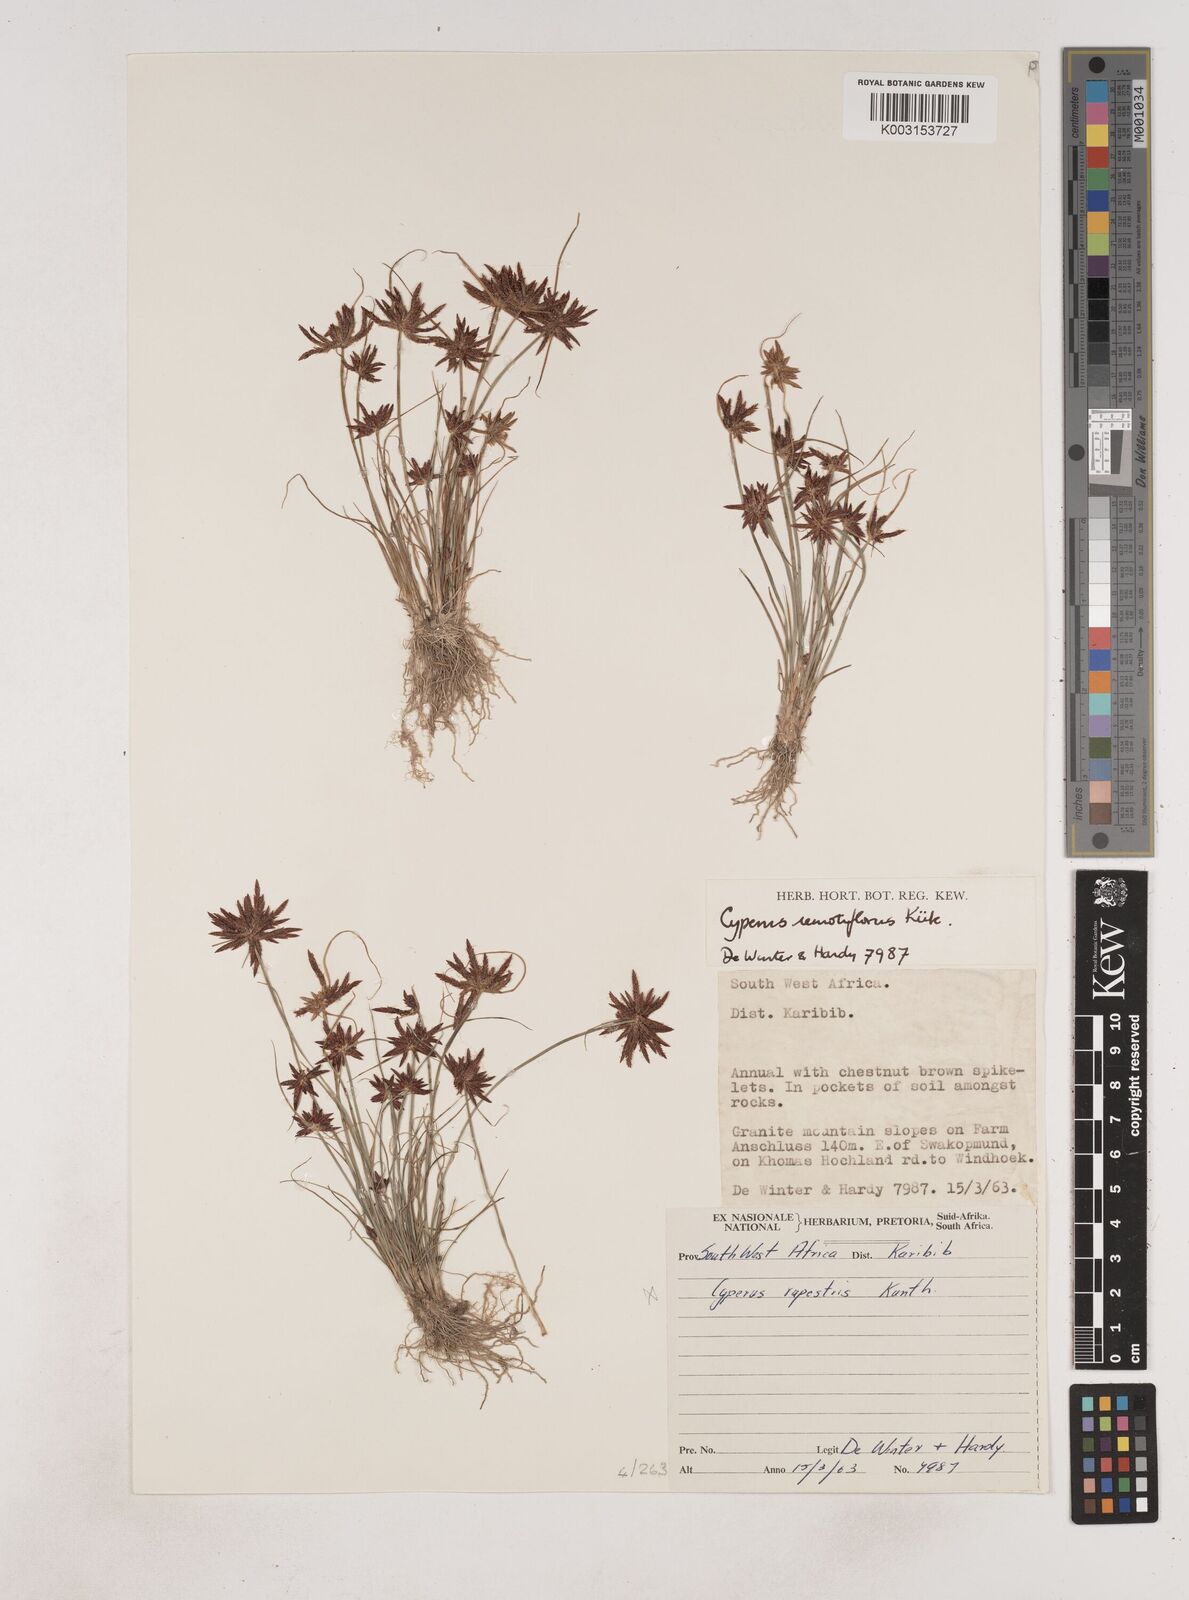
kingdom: Plantae
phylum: Tracheophyta
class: Liliopsida
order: Poales
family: Cyperaceae
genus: Cyperus
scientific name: Cyperus remotiflorus
